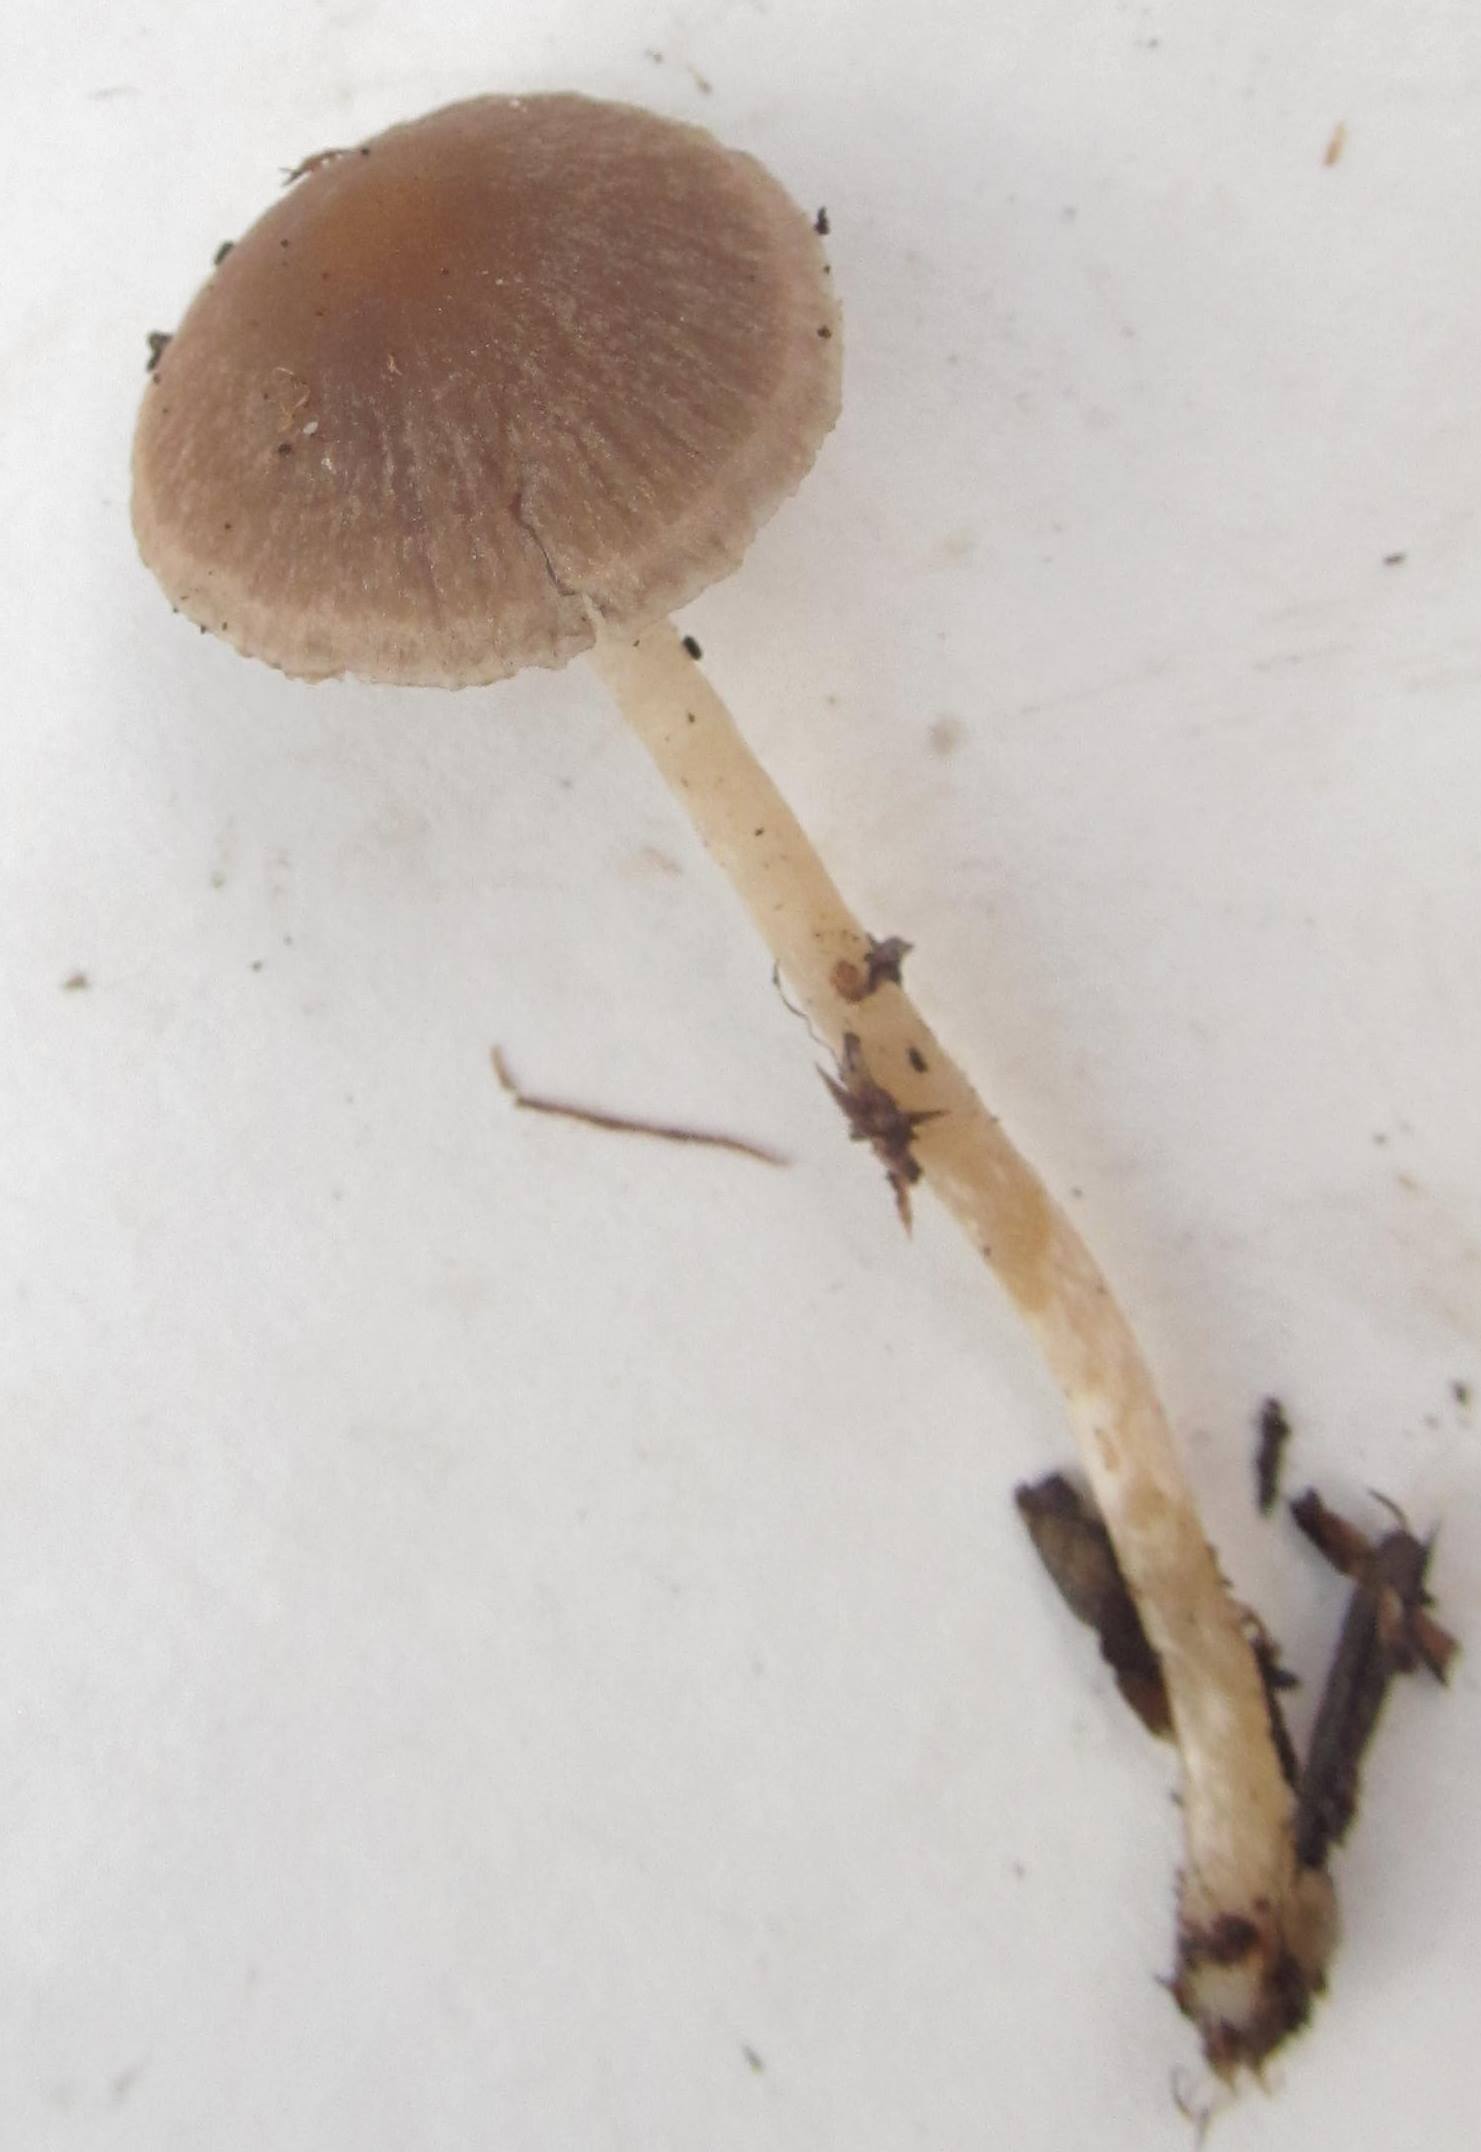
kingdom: Fungi
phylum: Basidiomycota
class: Agaricomycetes
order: Agaricales
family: Psathyrellaceae
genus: Psathyrella
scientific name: Psathyrella impexa
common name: rødmende mørkhat
